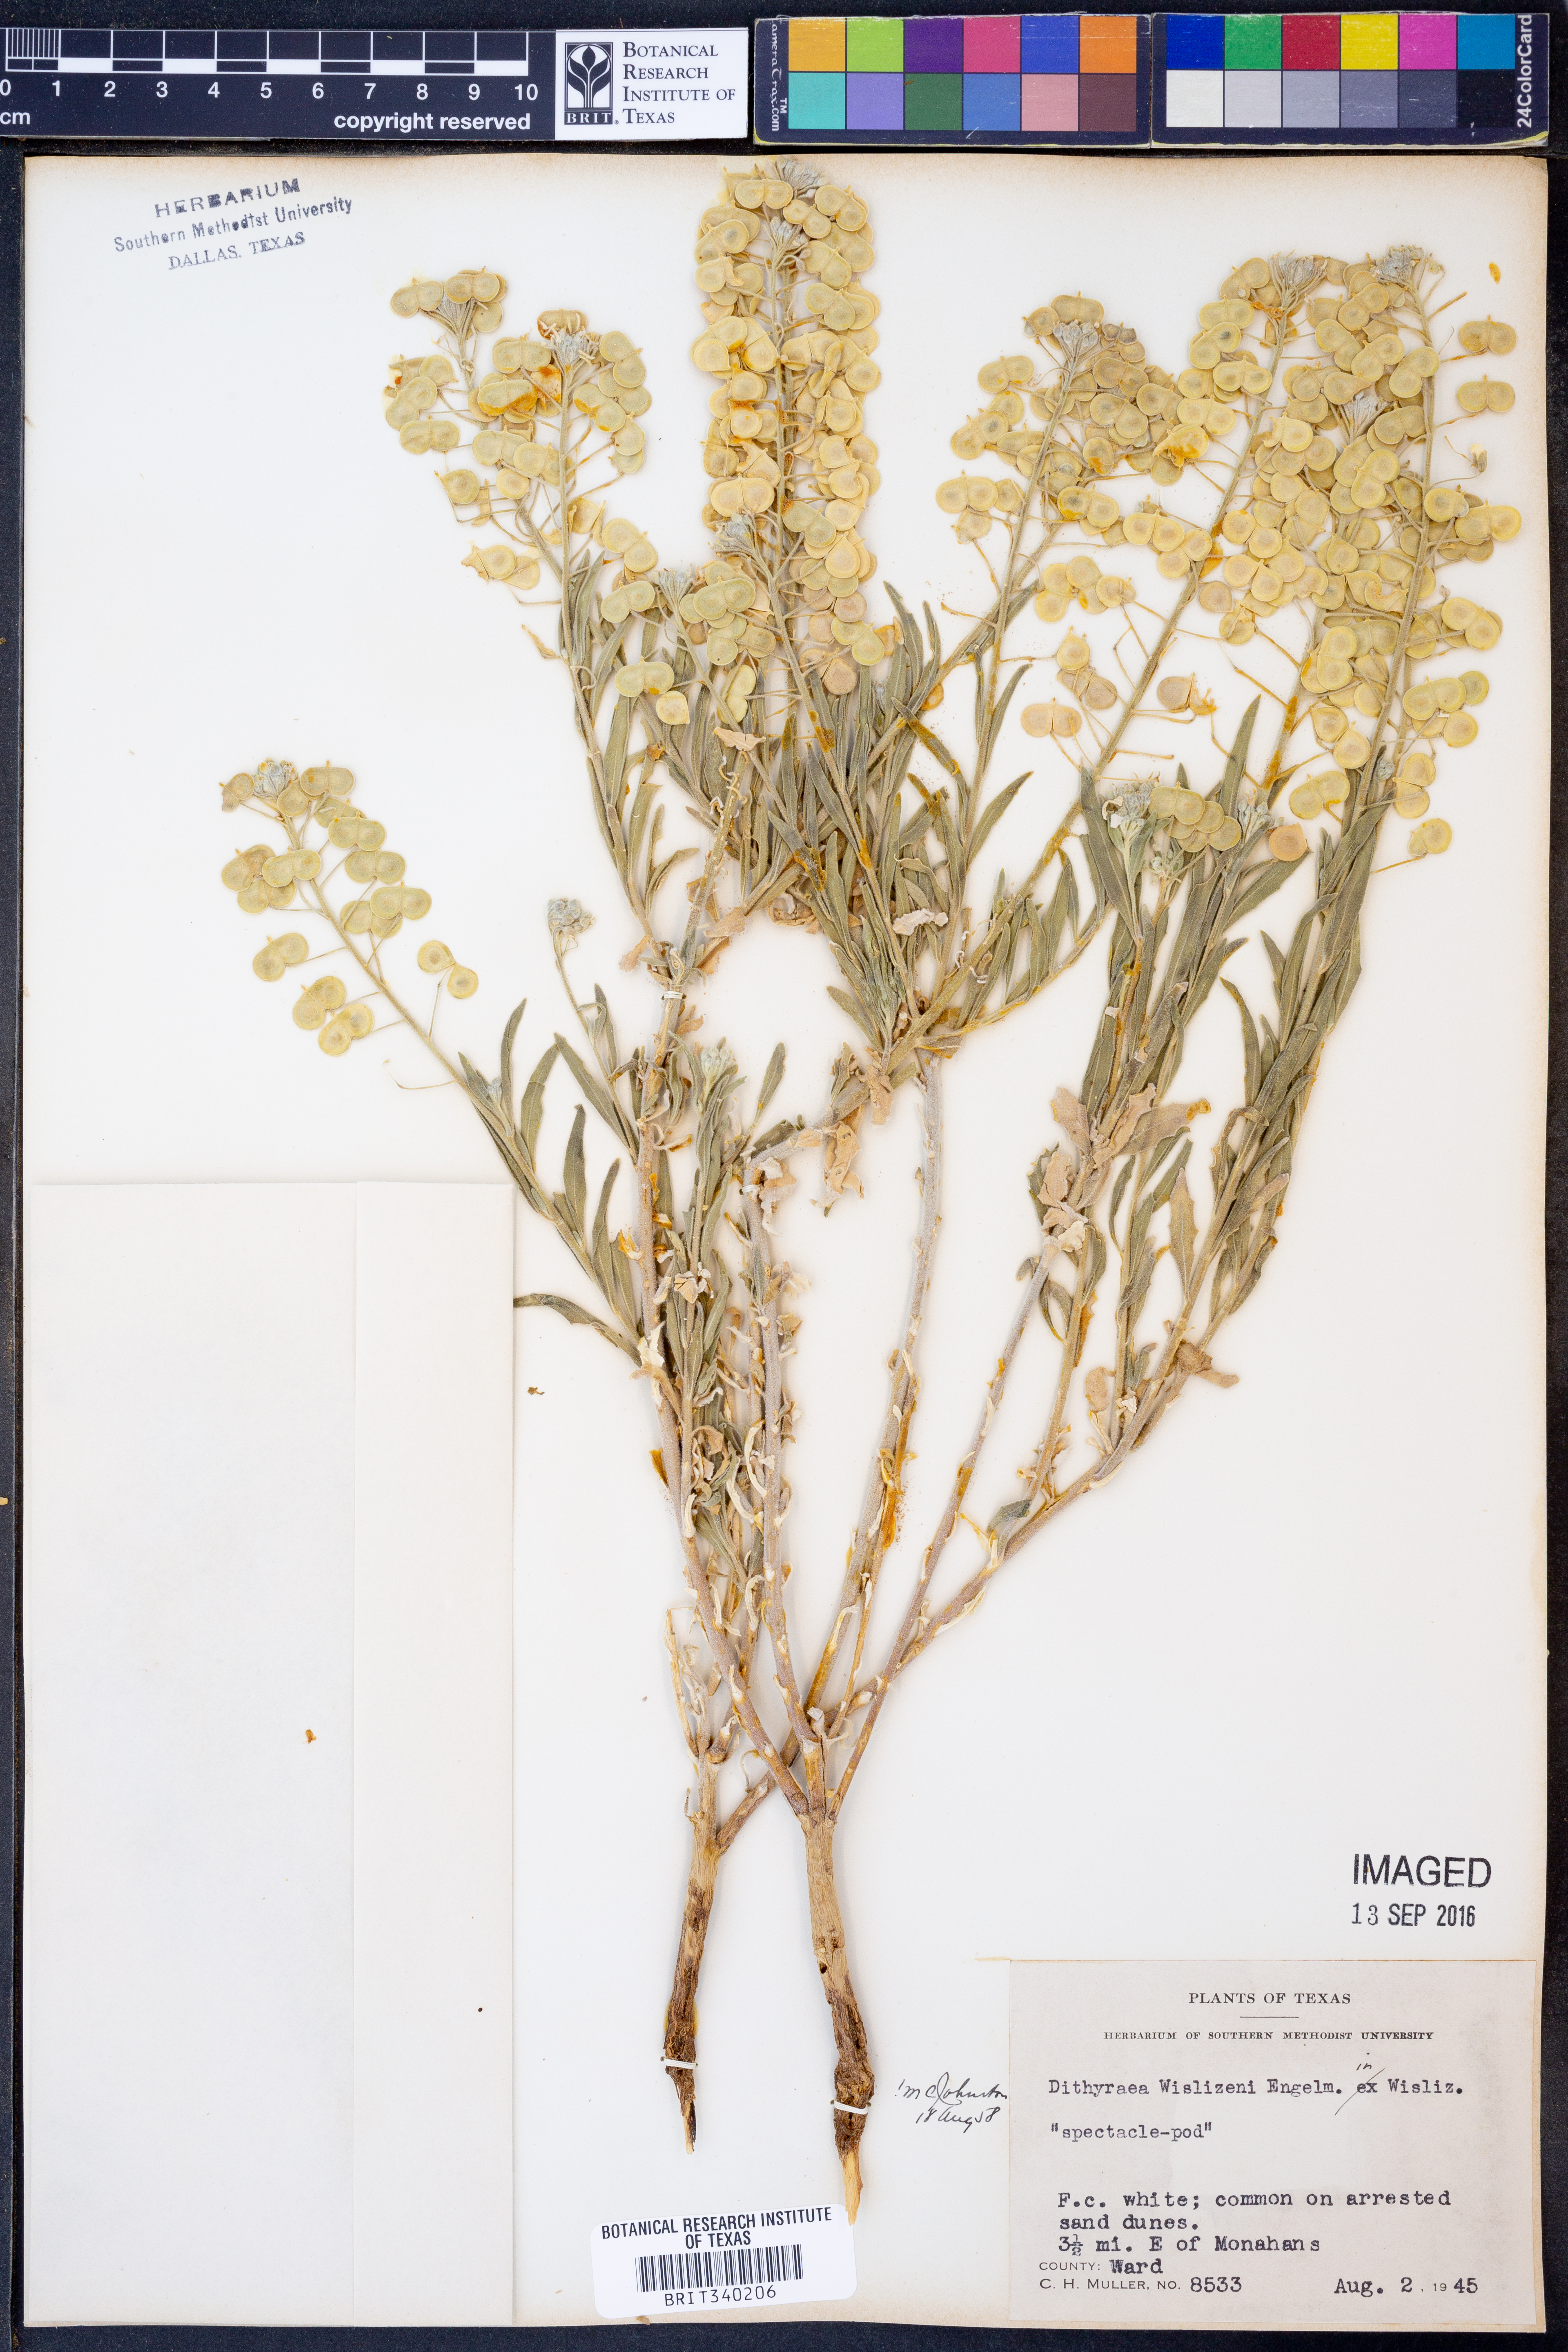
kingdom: Plantae
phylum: Tracheophyta
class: Magnoliopsida
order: Brassicales
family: Brassicaceae
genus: Dimorphocarpa
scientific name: Dimorphocarpa wislizenii
